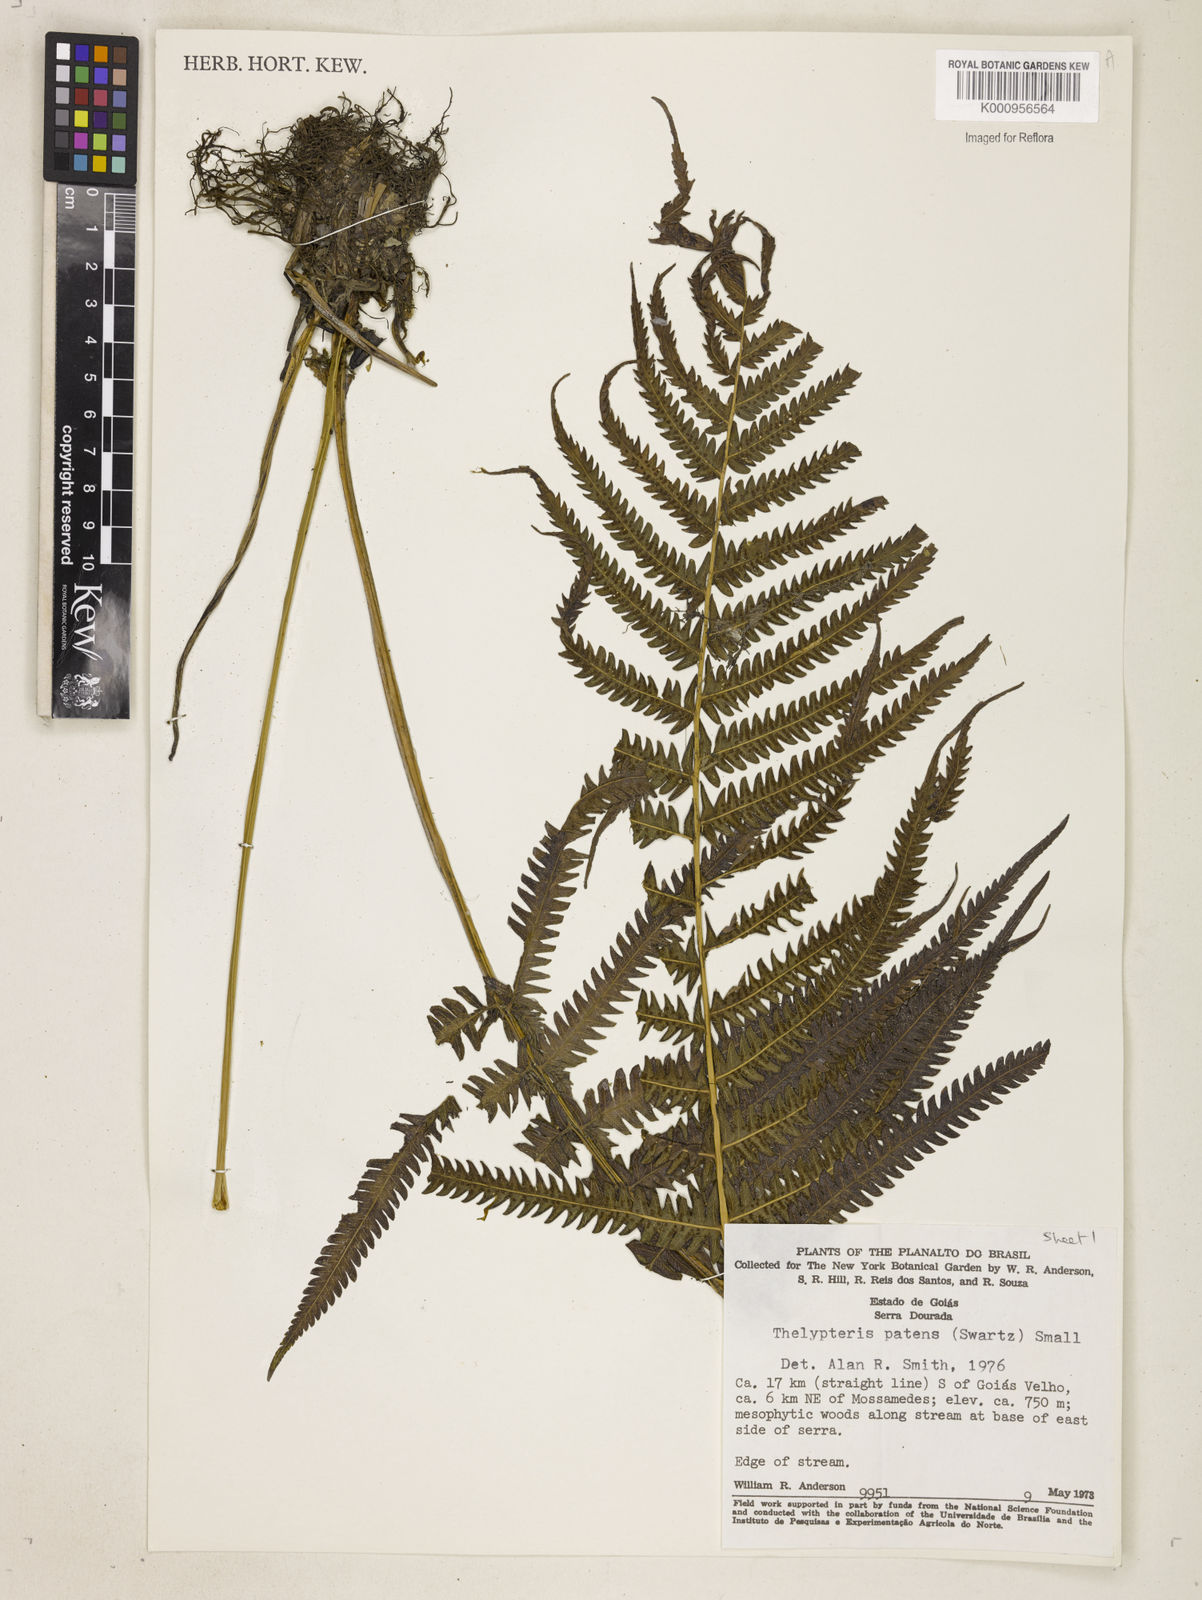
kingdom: Plantae
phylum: Tracheophyta
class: Polypodiopsida
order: Polypodiales
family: Thelypteridaceae
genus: Pelazoneuron
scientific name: Pelazoneuron patens
